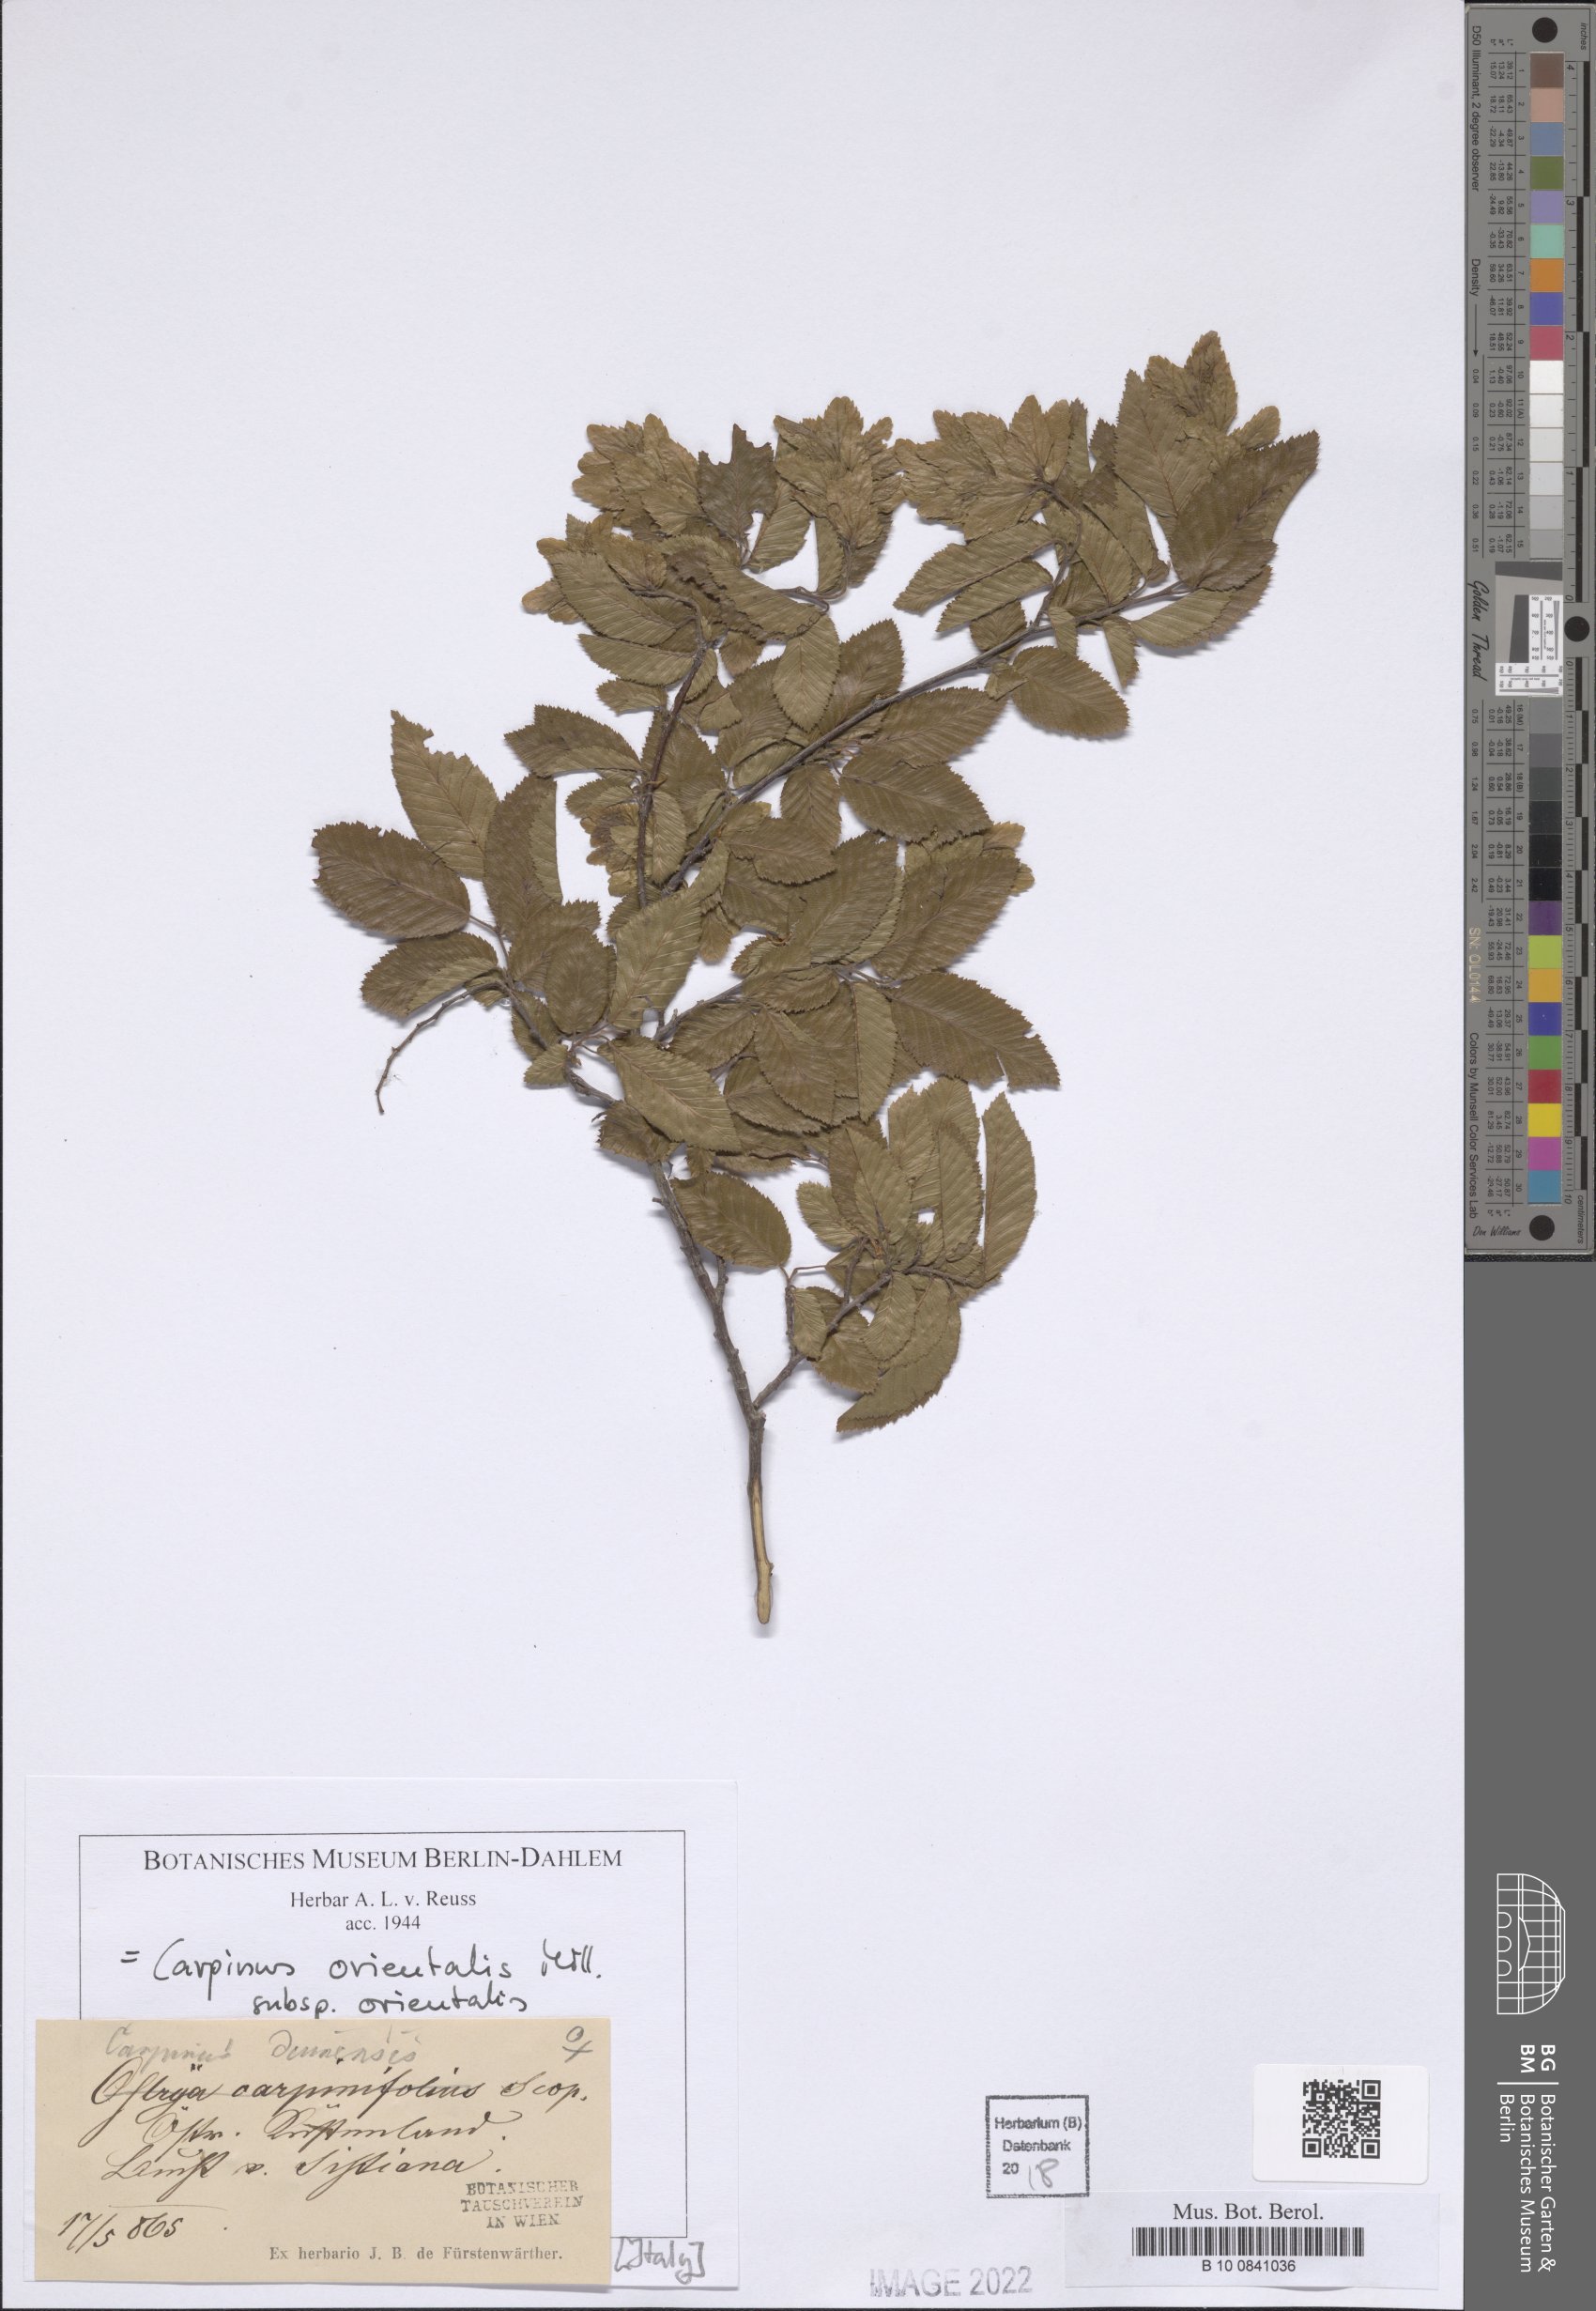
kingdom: Plantae
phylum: Tracheophyta
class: Magnoliopsida
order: Fagales
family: Betulaceae
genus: Carpinus
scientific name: Carpinus orientalis
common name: Eastern hornbeam
